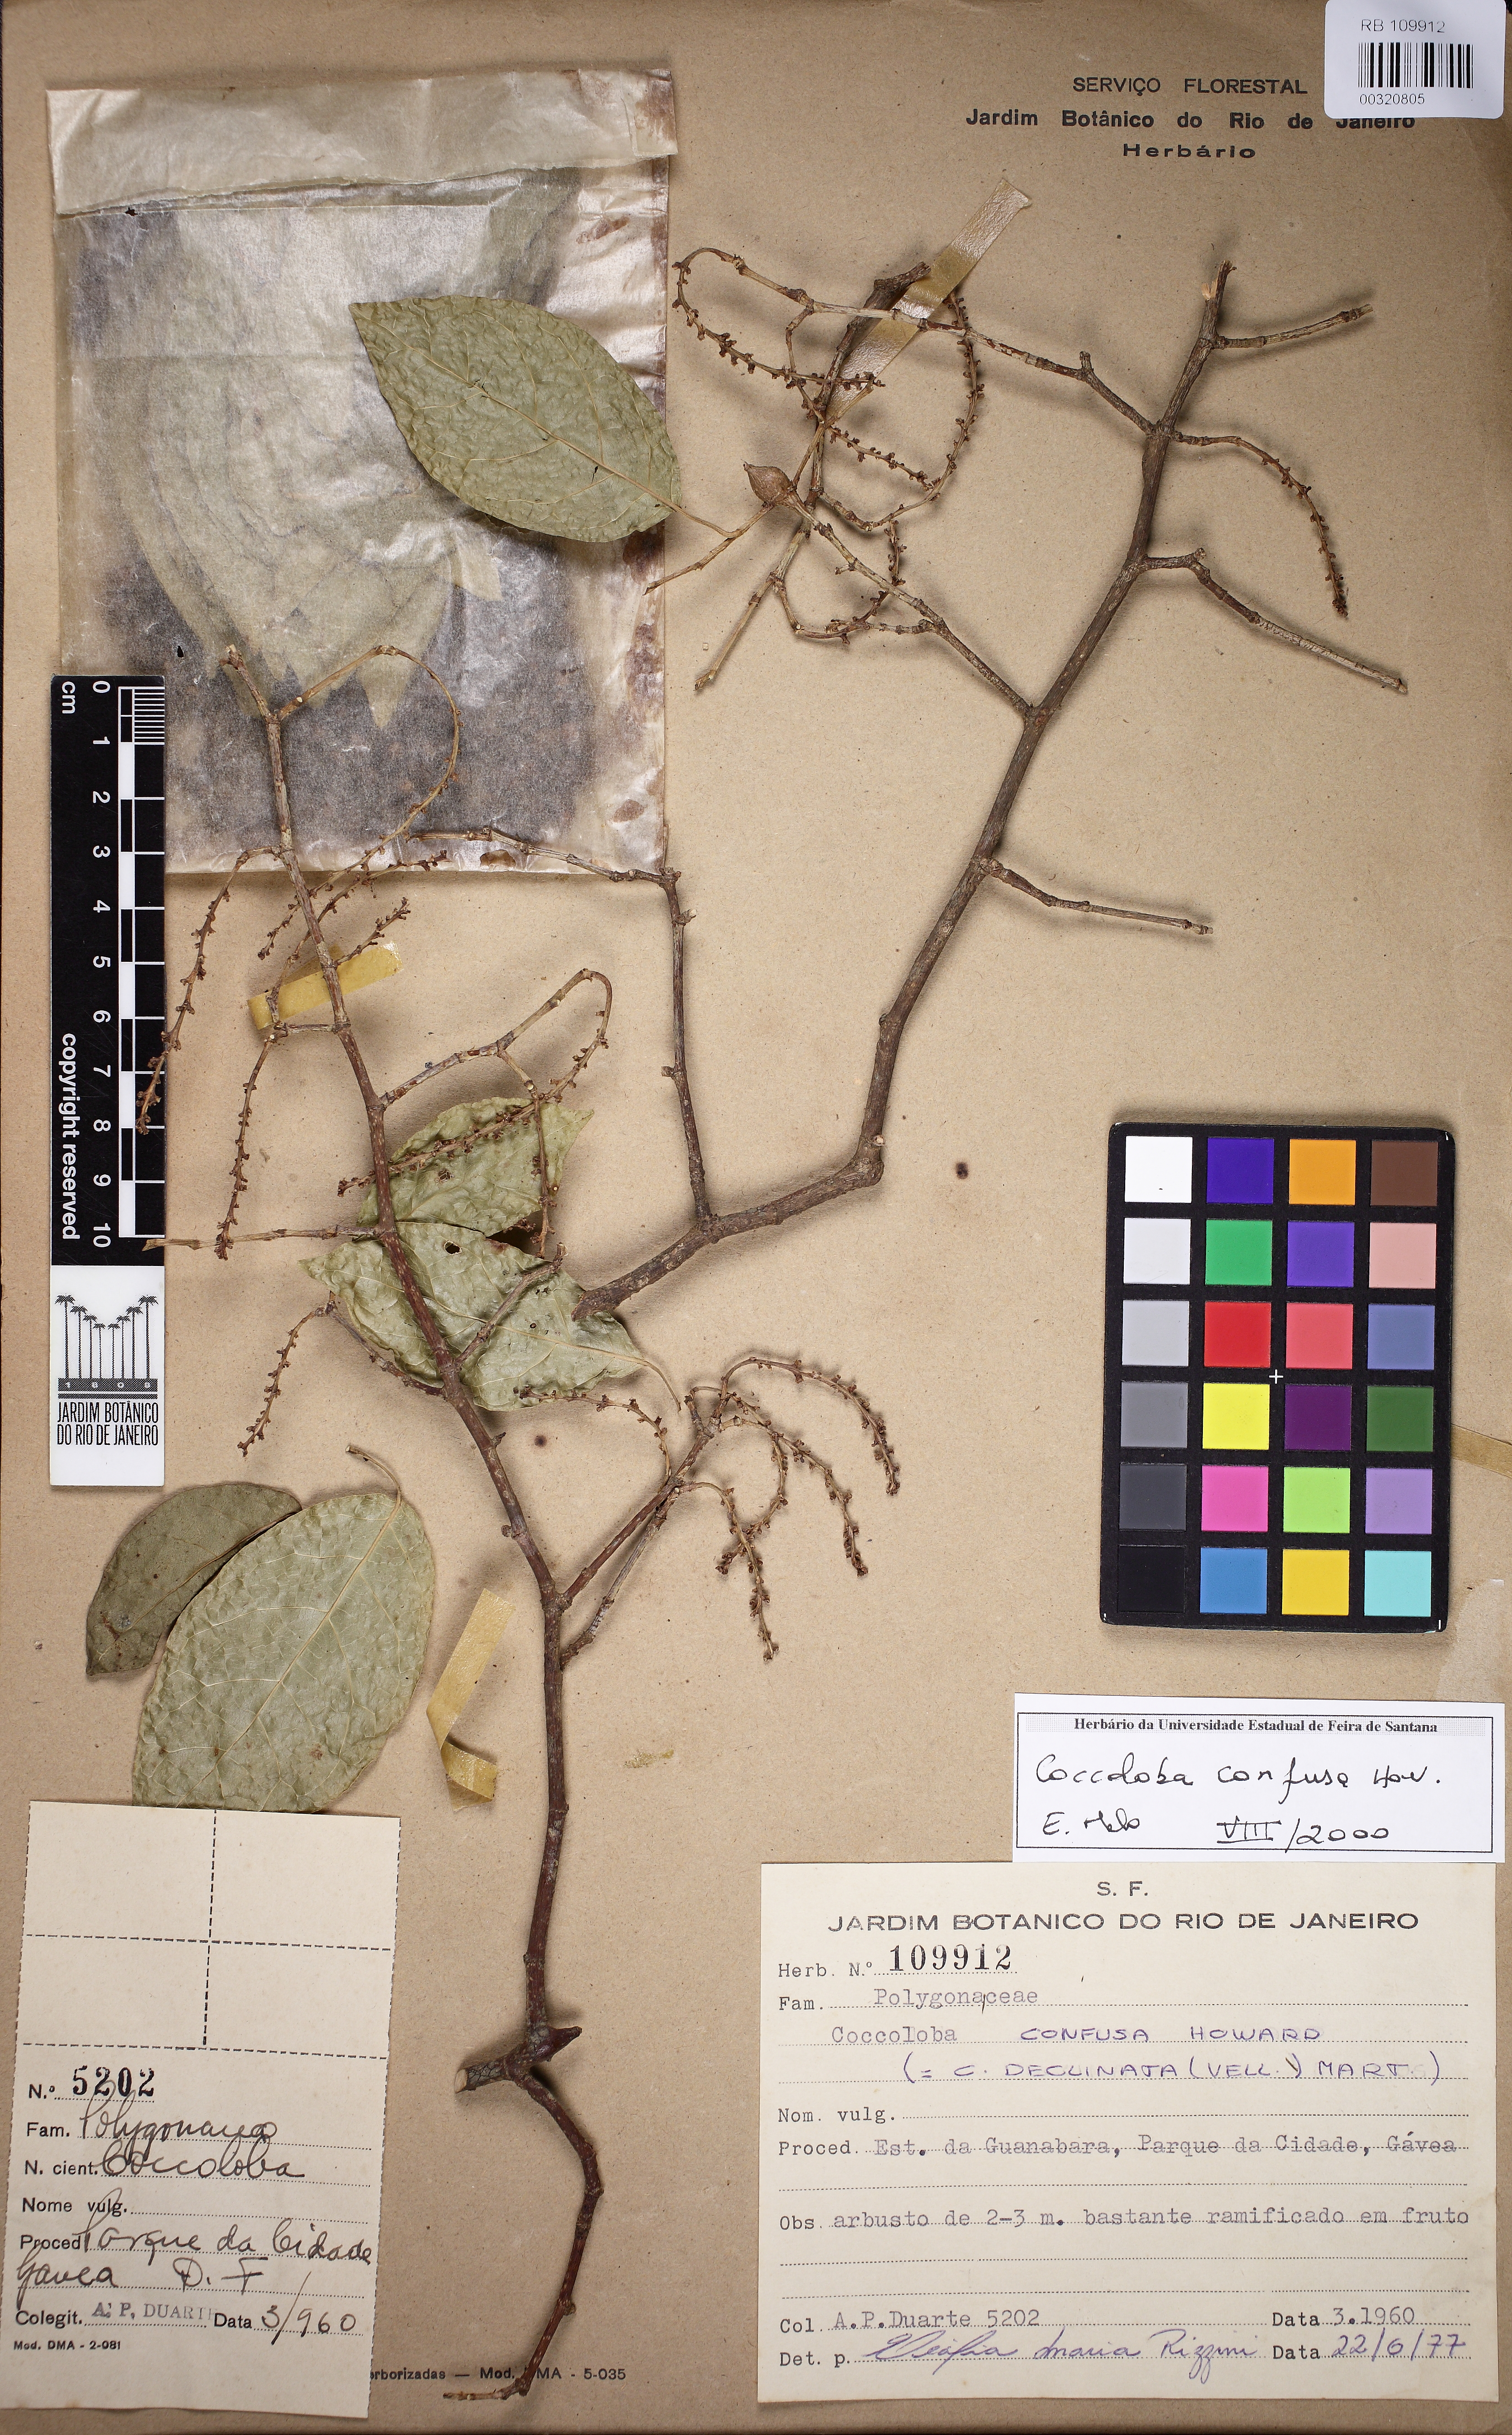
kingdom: Plantae
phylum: Tracheophyta
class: Magnoliopsida
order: Caryophyllales
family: Polygonaceae
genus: Coccoloba
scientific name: Coccoloba declinata
